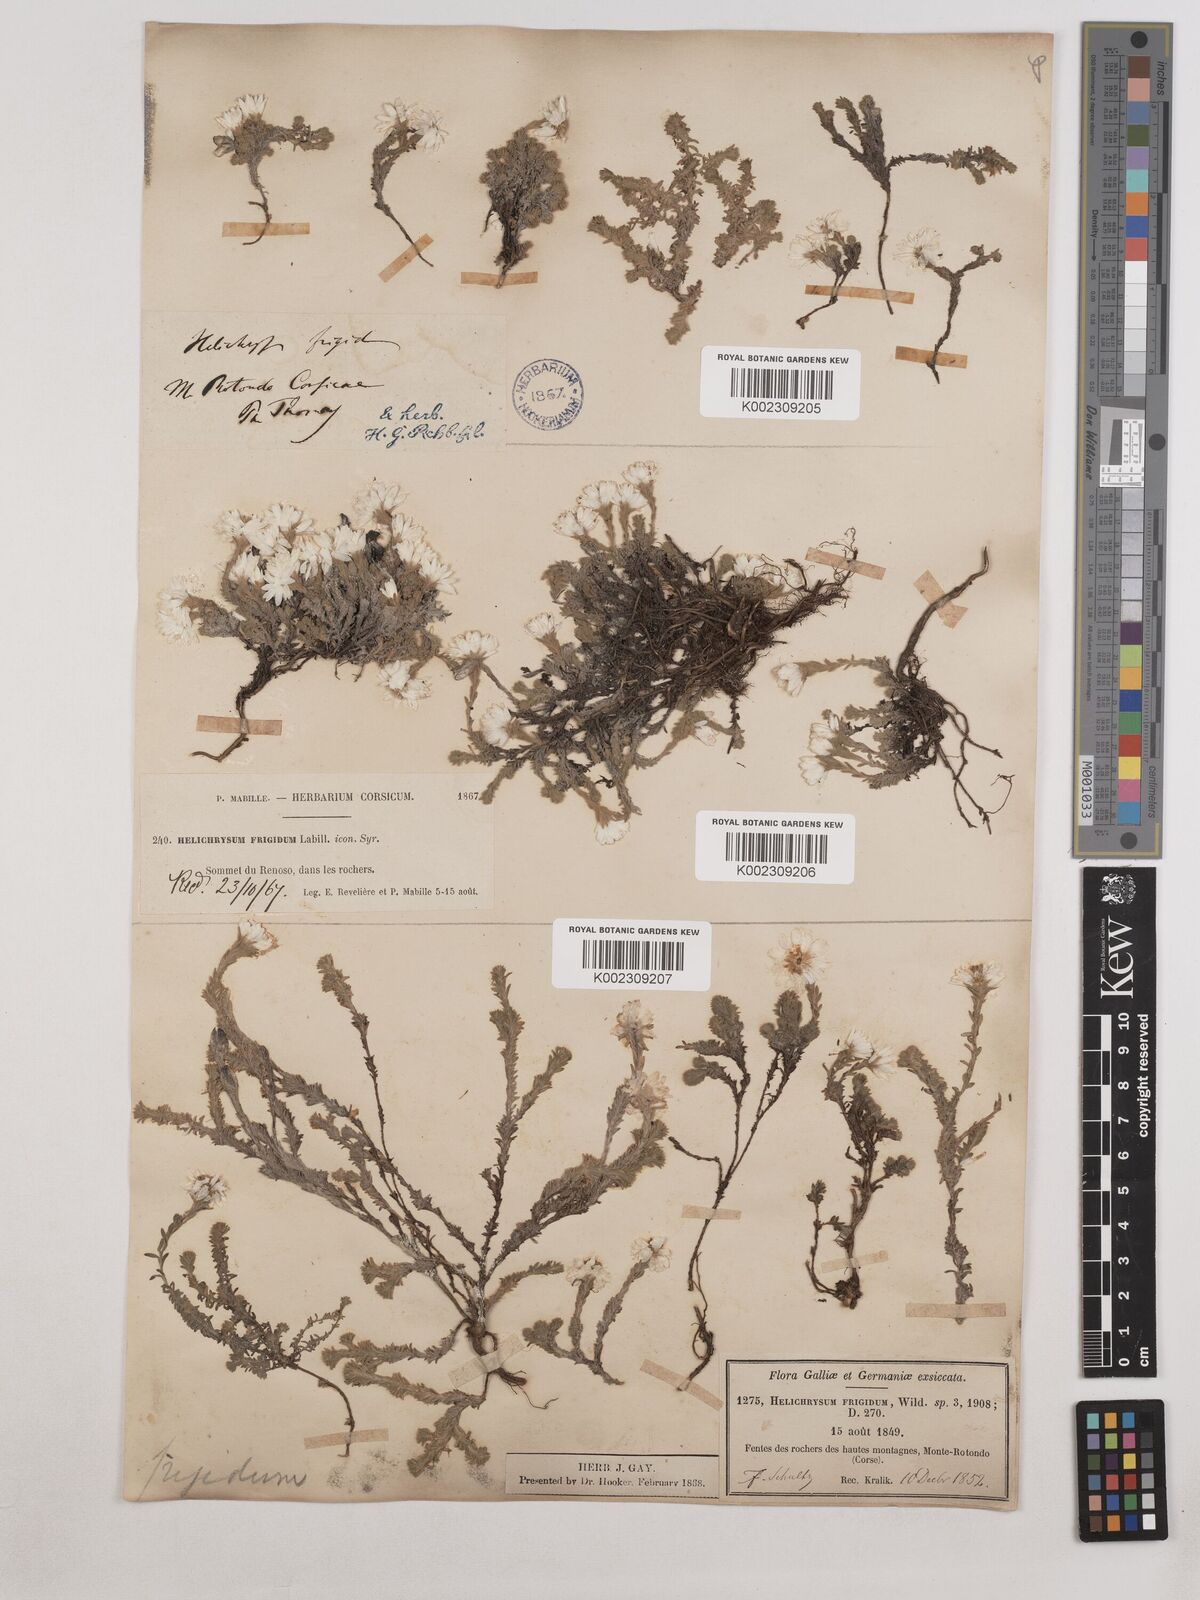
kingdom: Plantae
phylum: Tracheophyta
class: Magnoliopsida
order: Asterales
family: Asteraceae
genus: Castroviejoa
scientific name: Castroviejoa frigida
